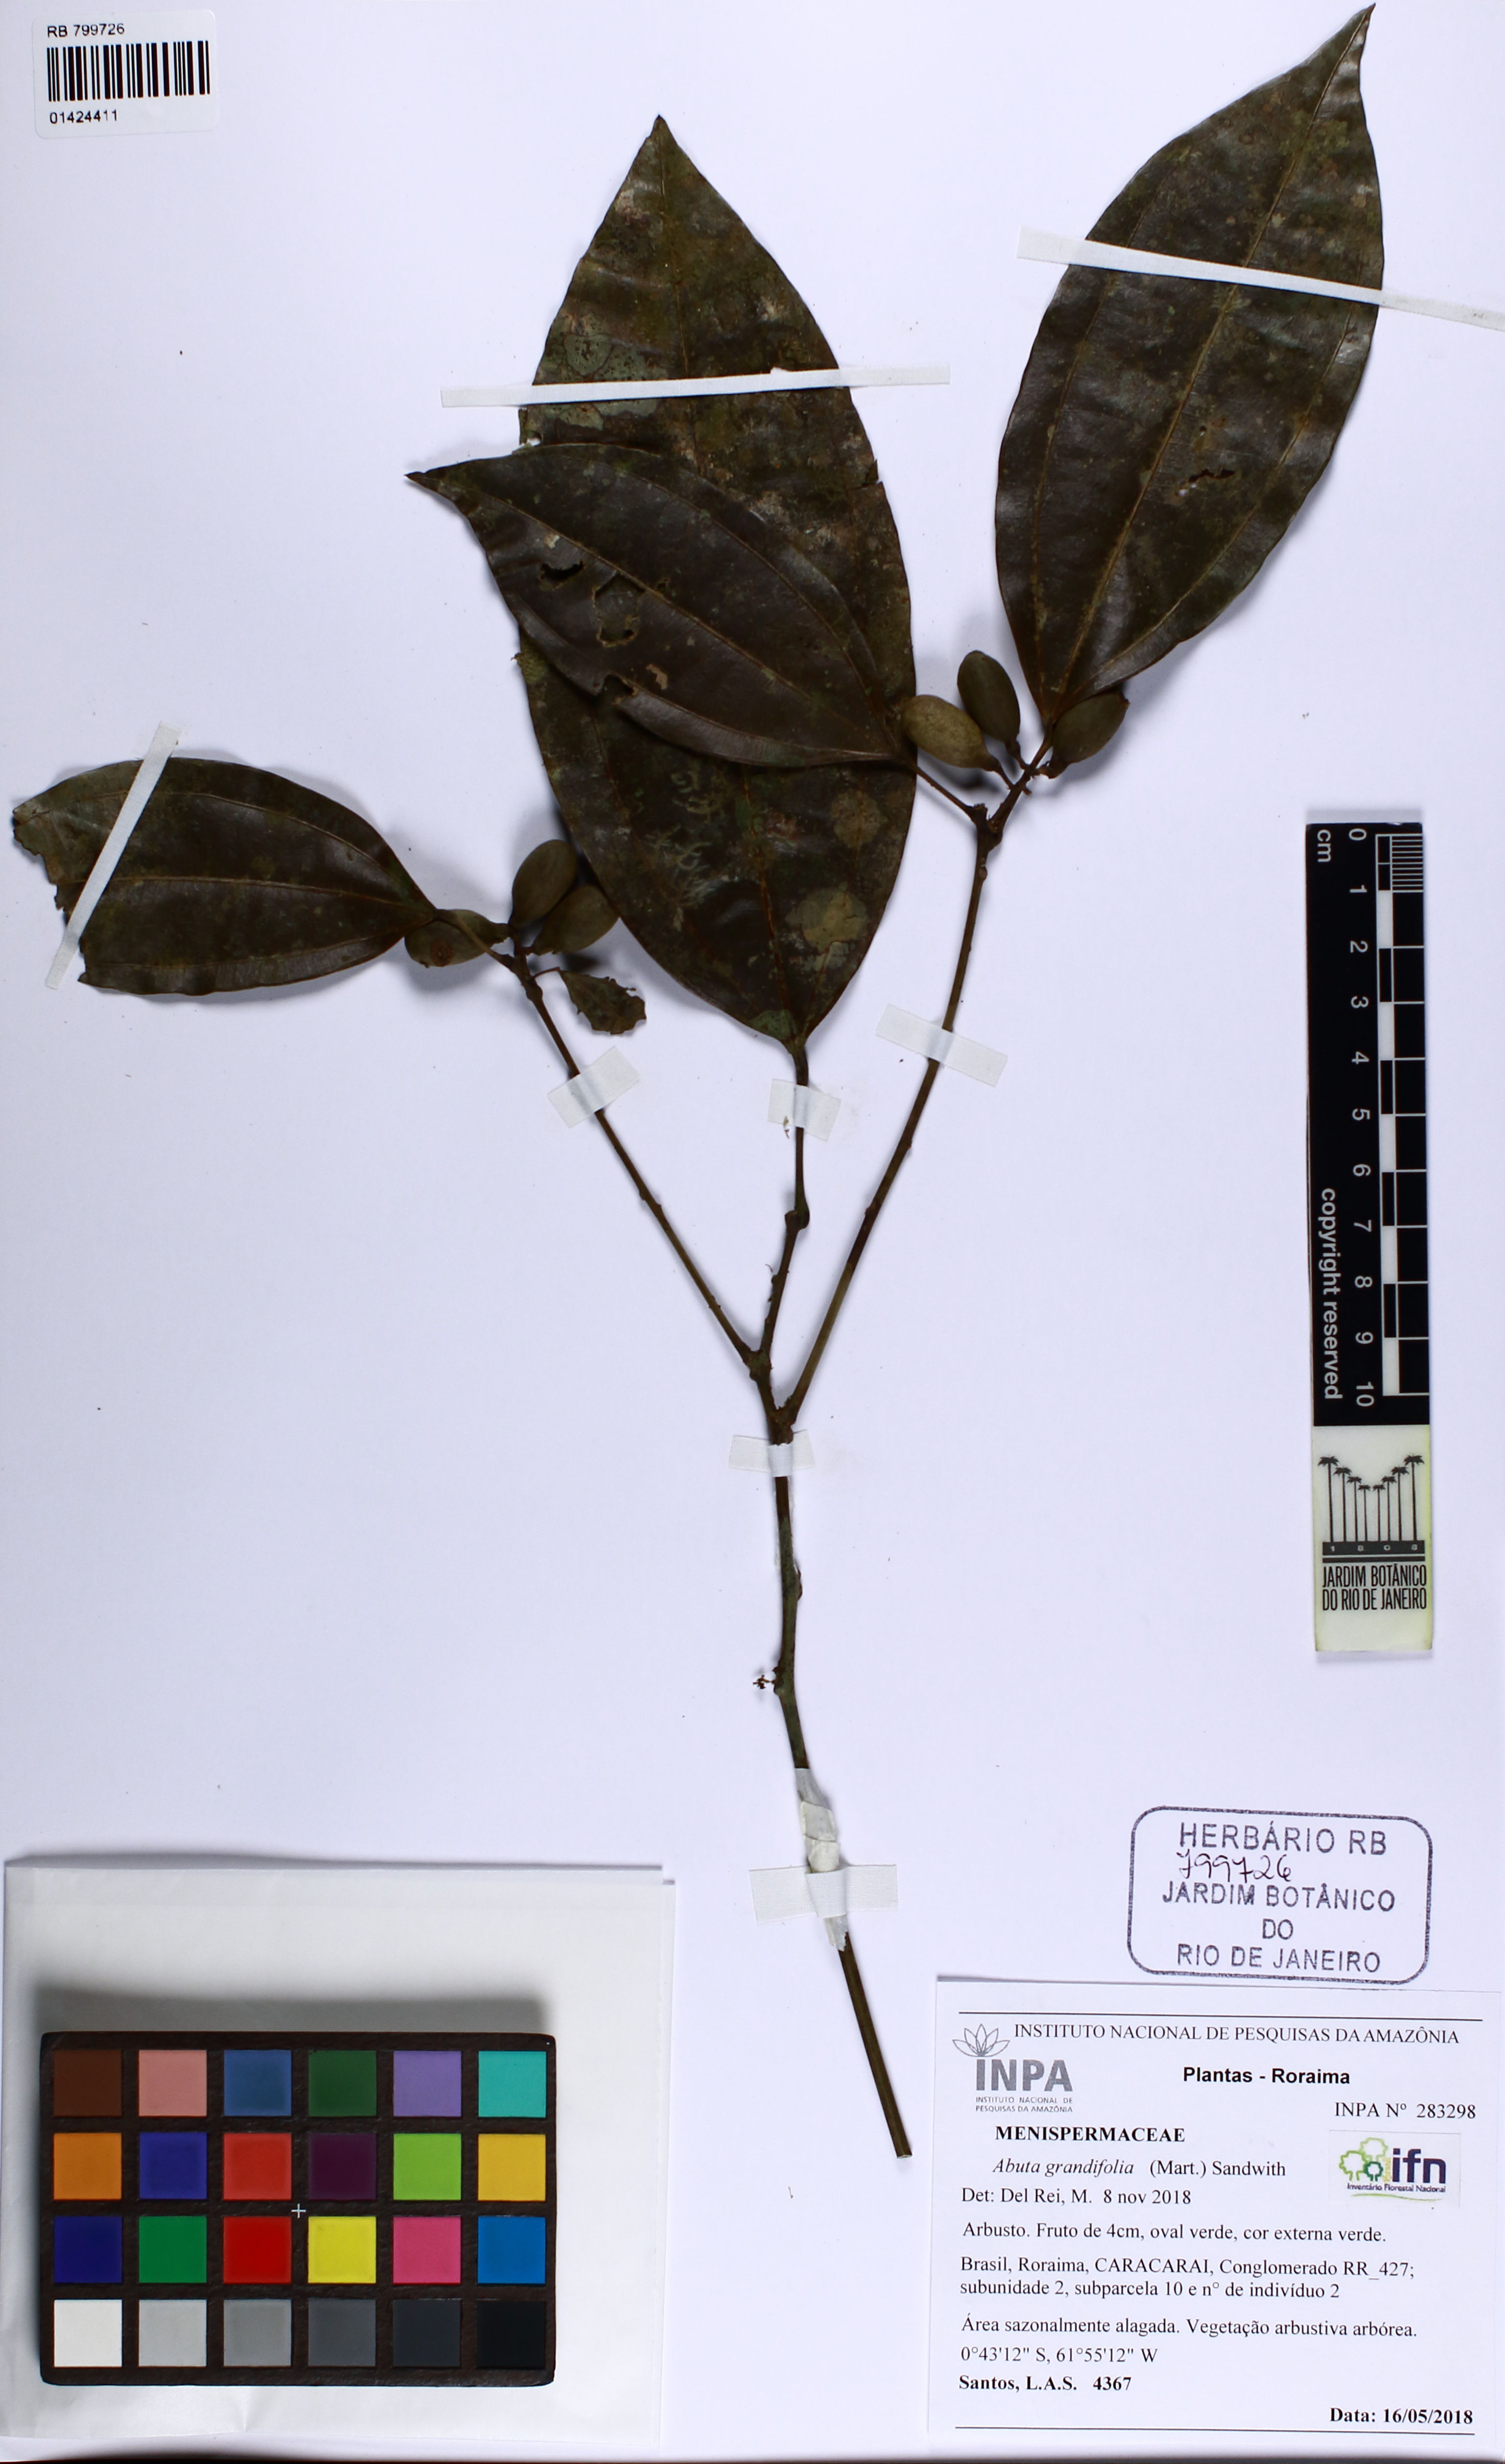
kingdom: Plantae
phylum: Tracheophyta
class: Magnoliopsida
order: Ranunculales
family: Menispermaceae
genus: Abuta
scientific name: Abuta grandifolia
